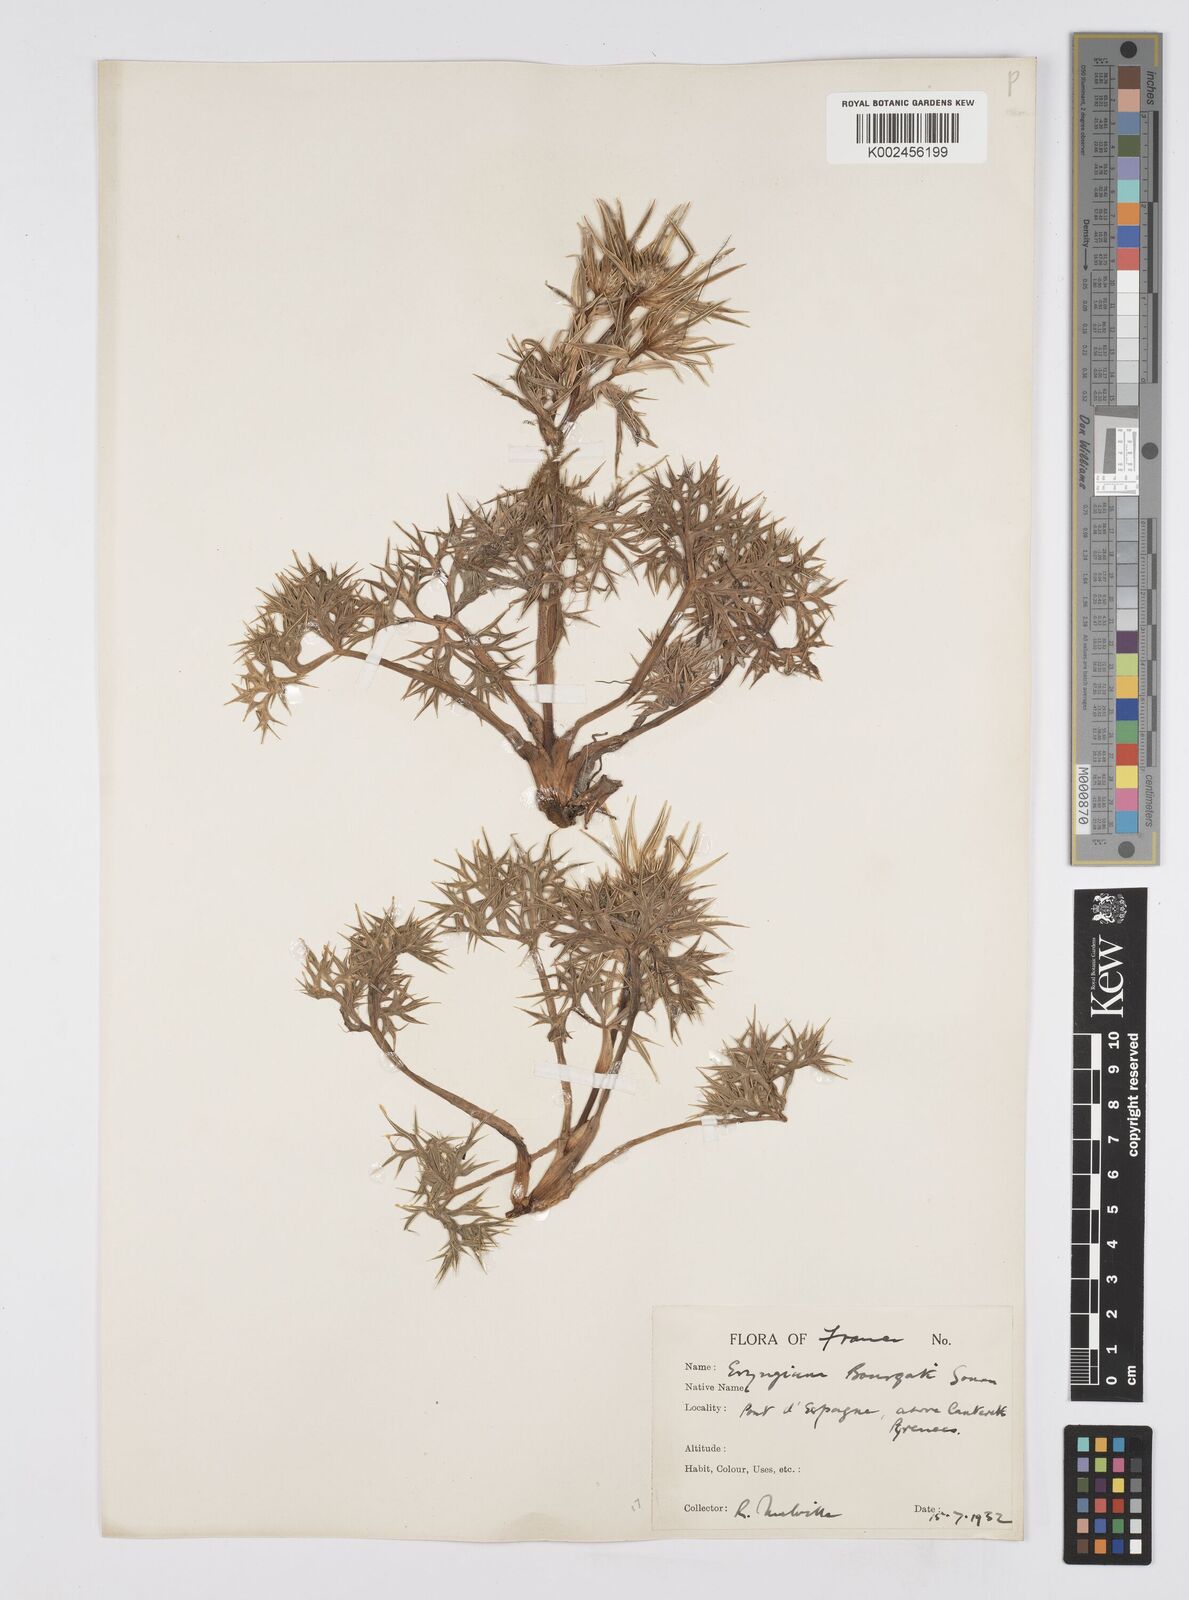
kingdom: Plantae
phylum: Tracheophyta
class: Magnoliopsida
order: Apiales
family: Apiaceae
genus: Eryngium
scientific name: Eryngium bourgatii
